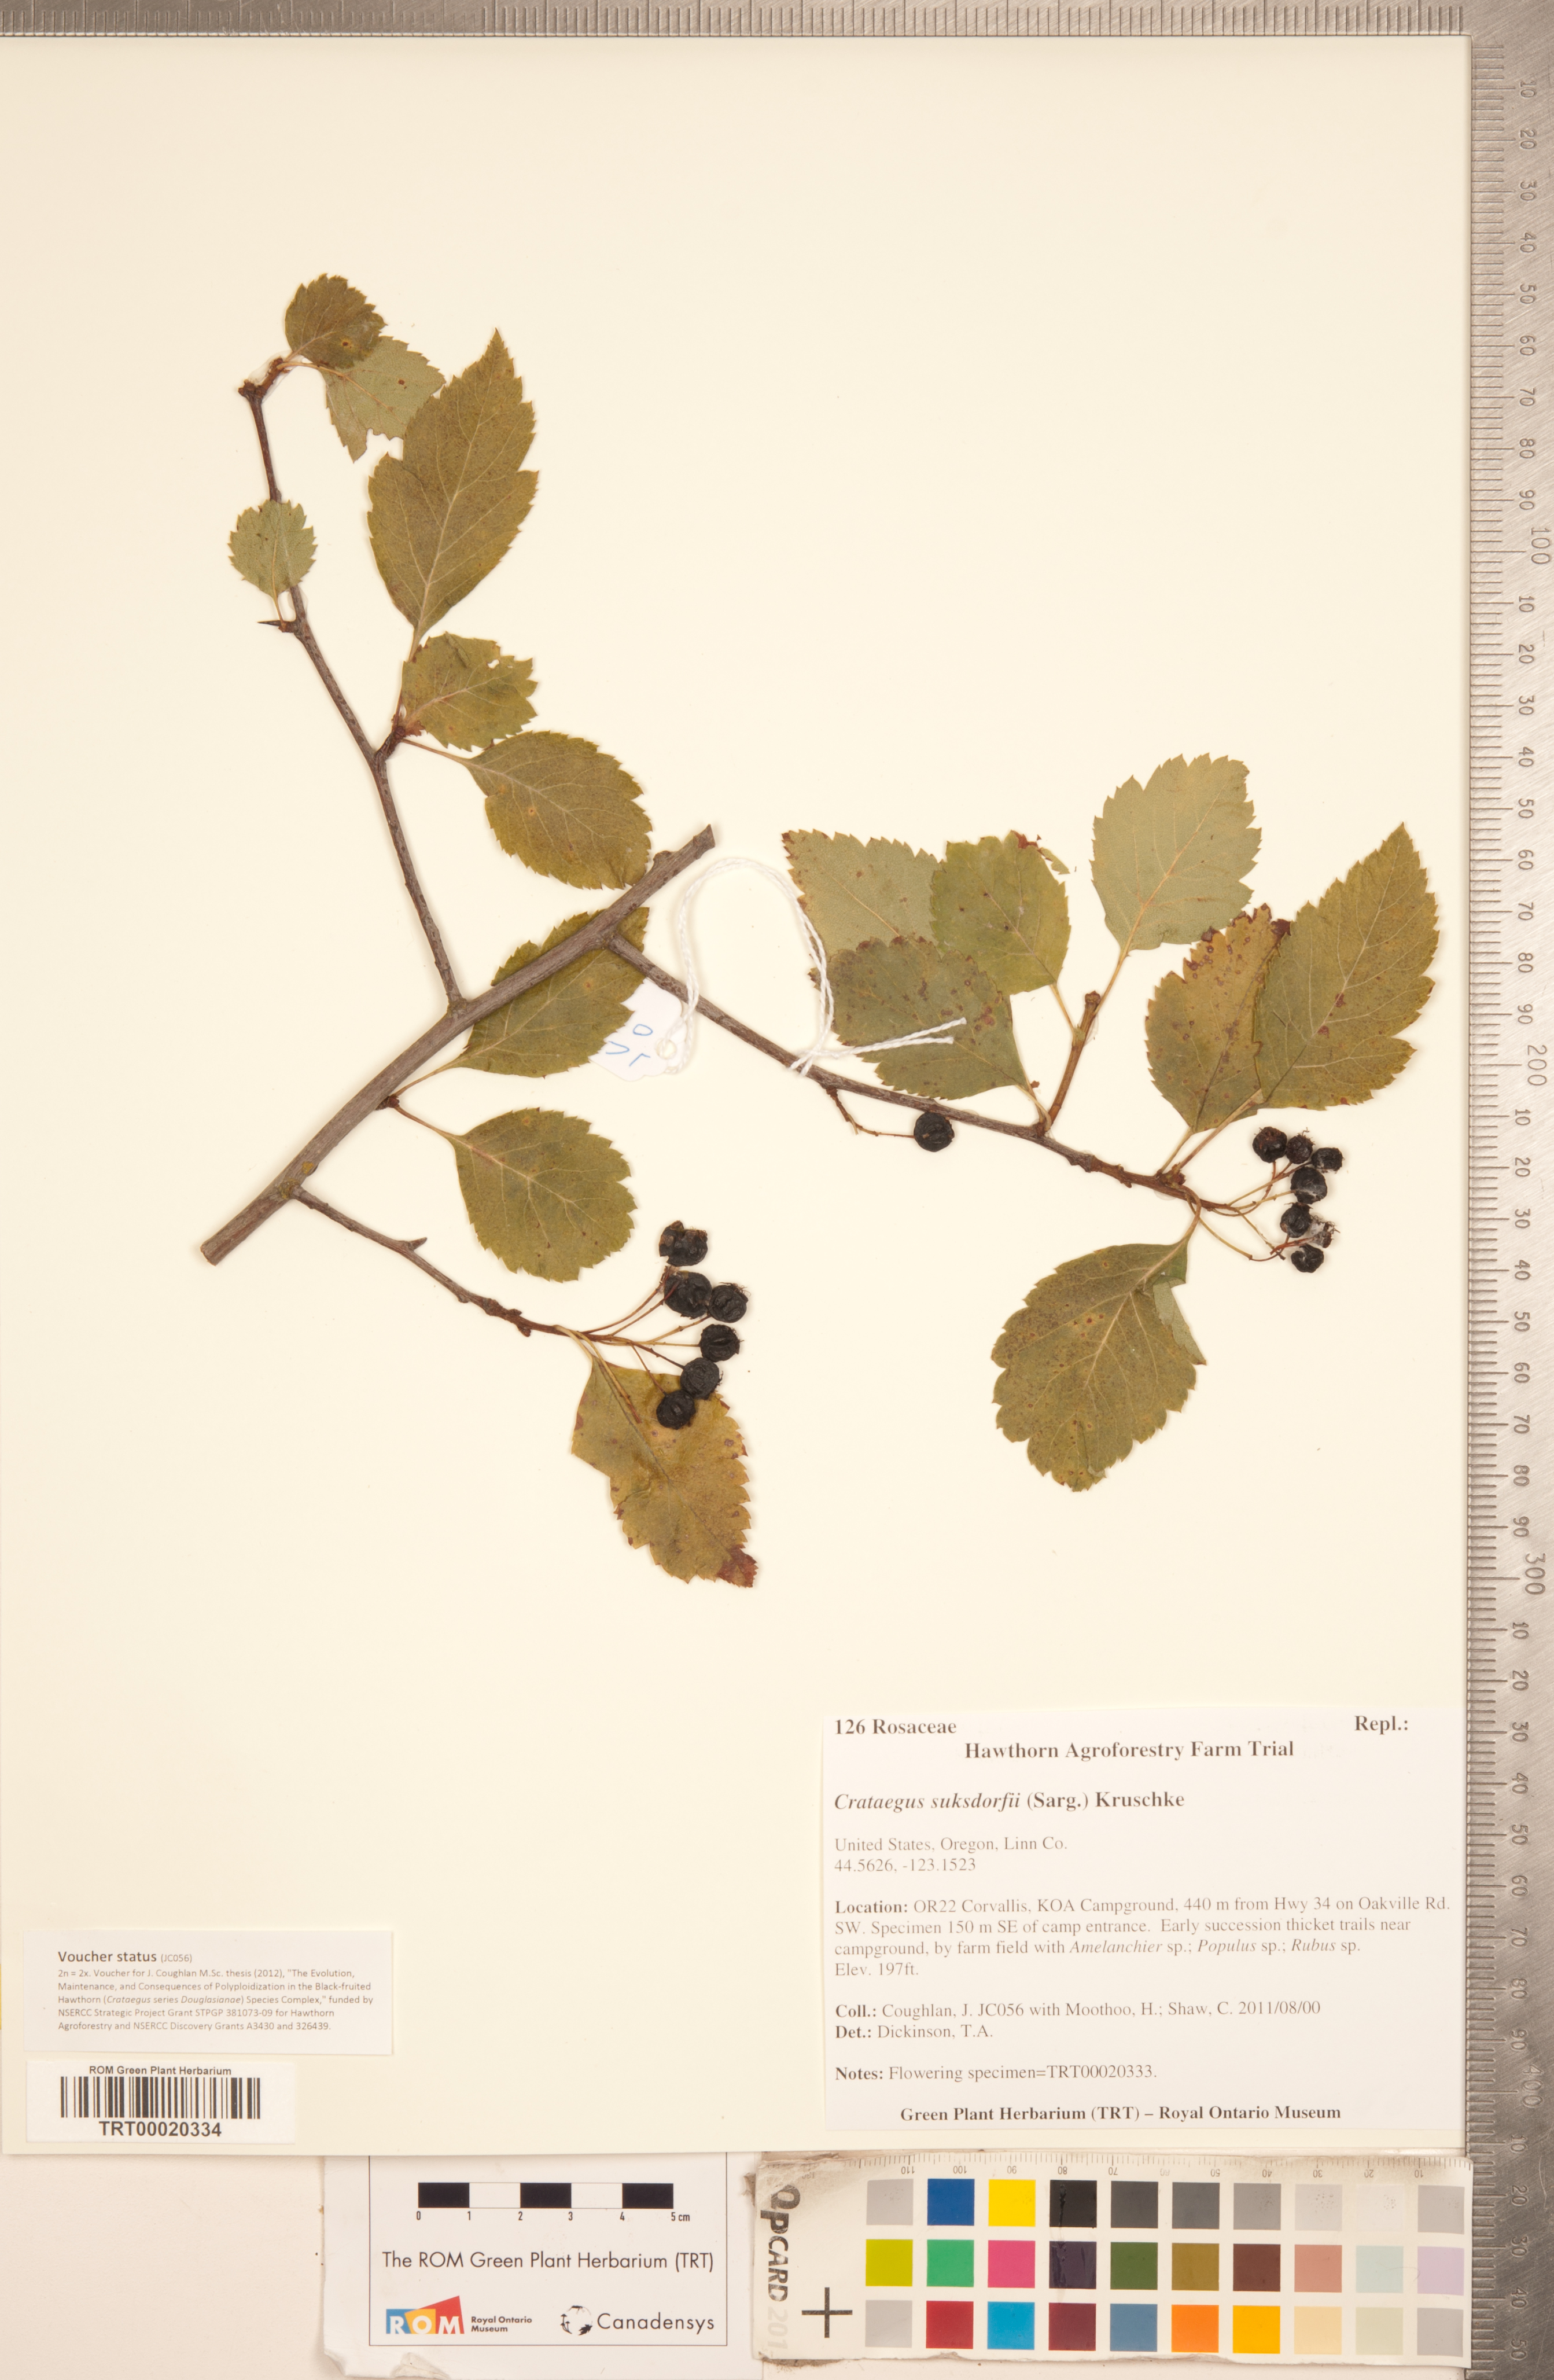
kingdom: Plantae
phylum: Tracheophyta
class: Magnoliopsida
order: Rosales
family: Rosaceae
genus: Crataegus
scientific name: Crataegus gaylussacia
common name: Huckleberry hawthorn
